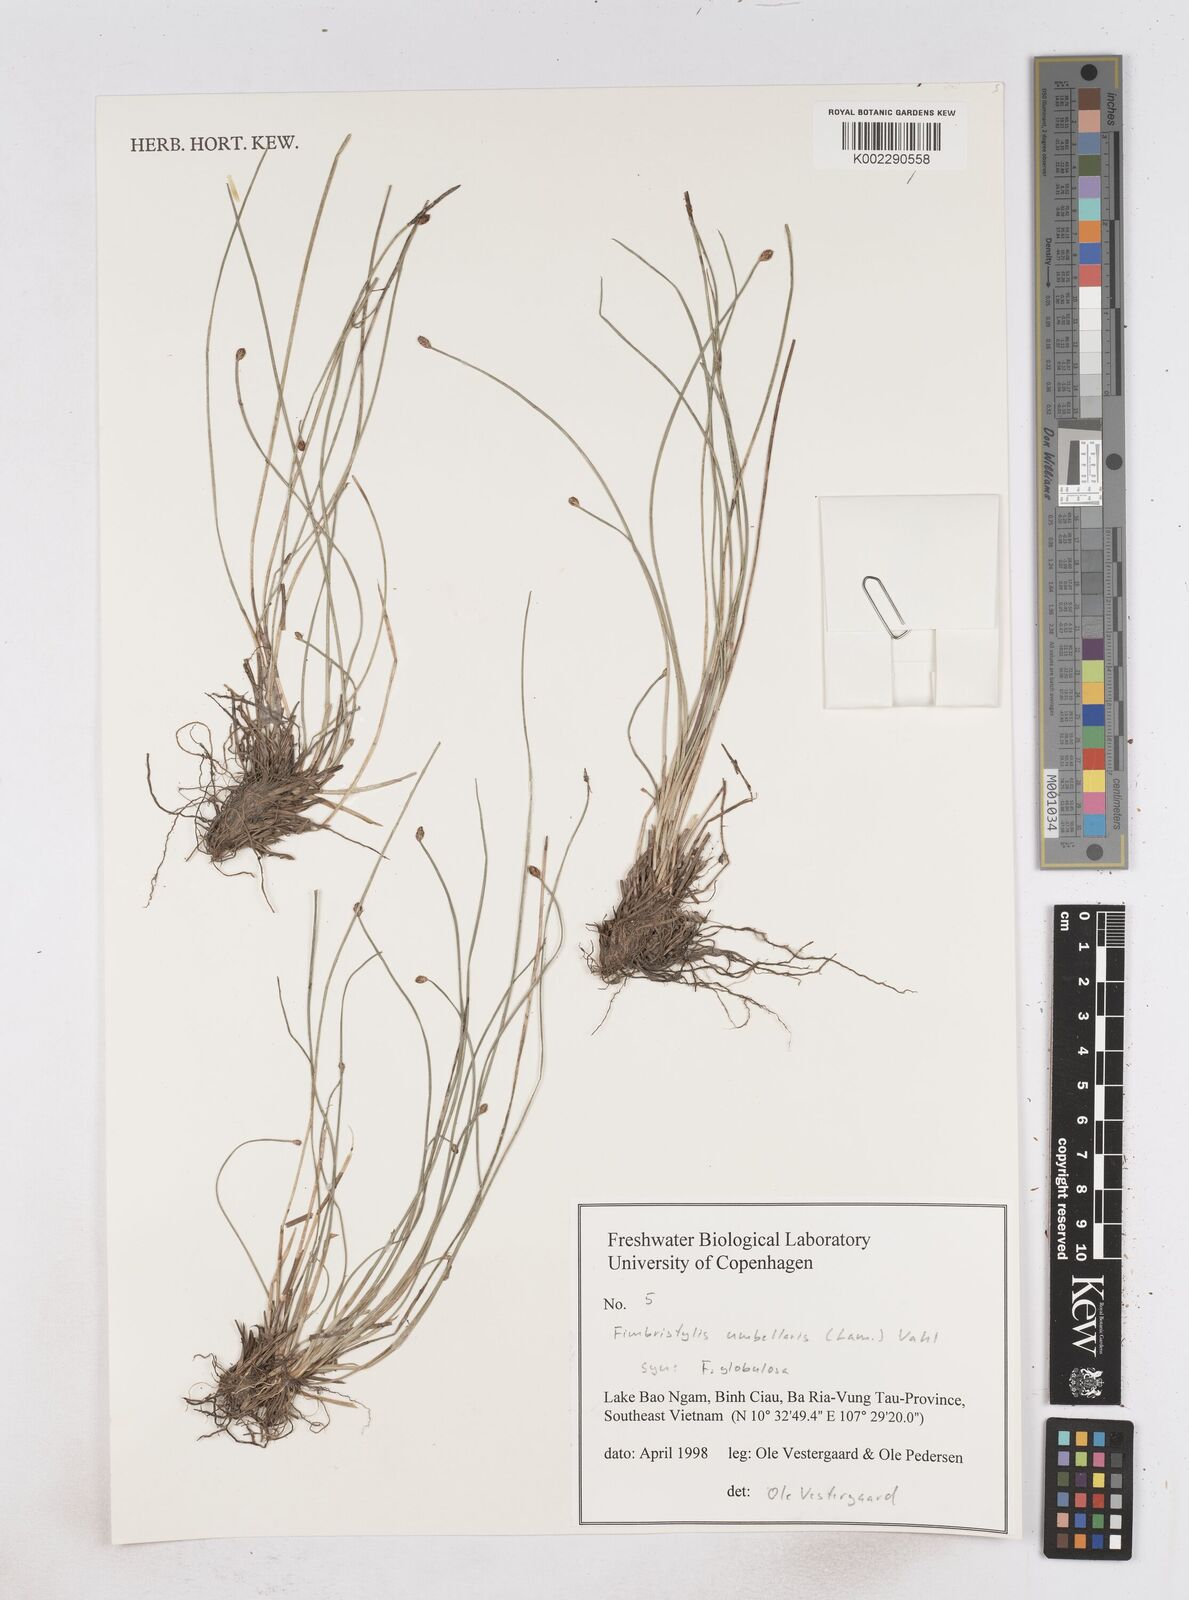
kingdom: Plantae
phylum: Tracheophyta
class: Liliopsida
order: Poales
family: Cyperaceae
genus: Fimbristylis
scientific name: Fimbristylis umbellaris
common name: Globular fimbristylis
